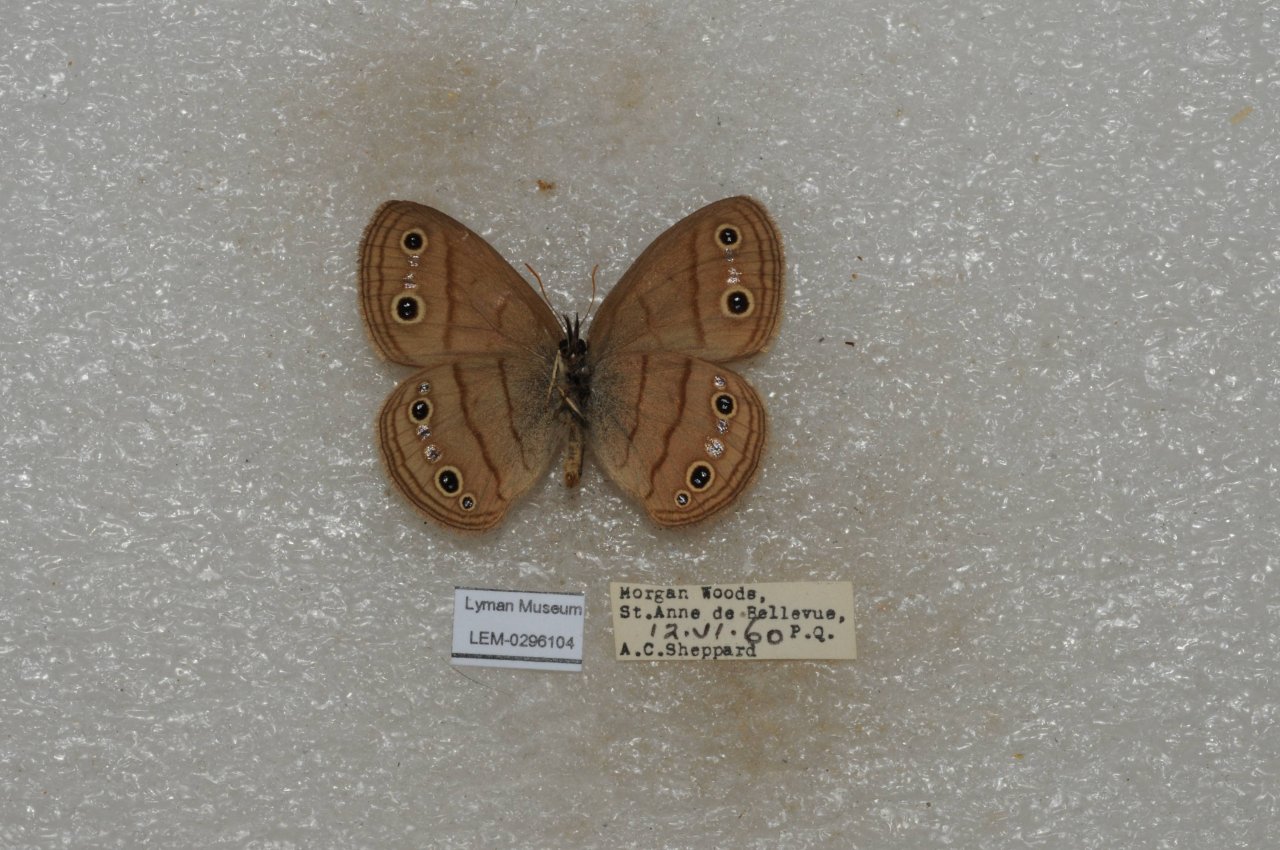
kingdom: Animalia
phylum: Arthropoda
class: Insecta
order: Lepidoptera
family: Nymphalidae
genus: Euptychia
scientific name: Euptychia cymela
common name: Little Wood Satyr
